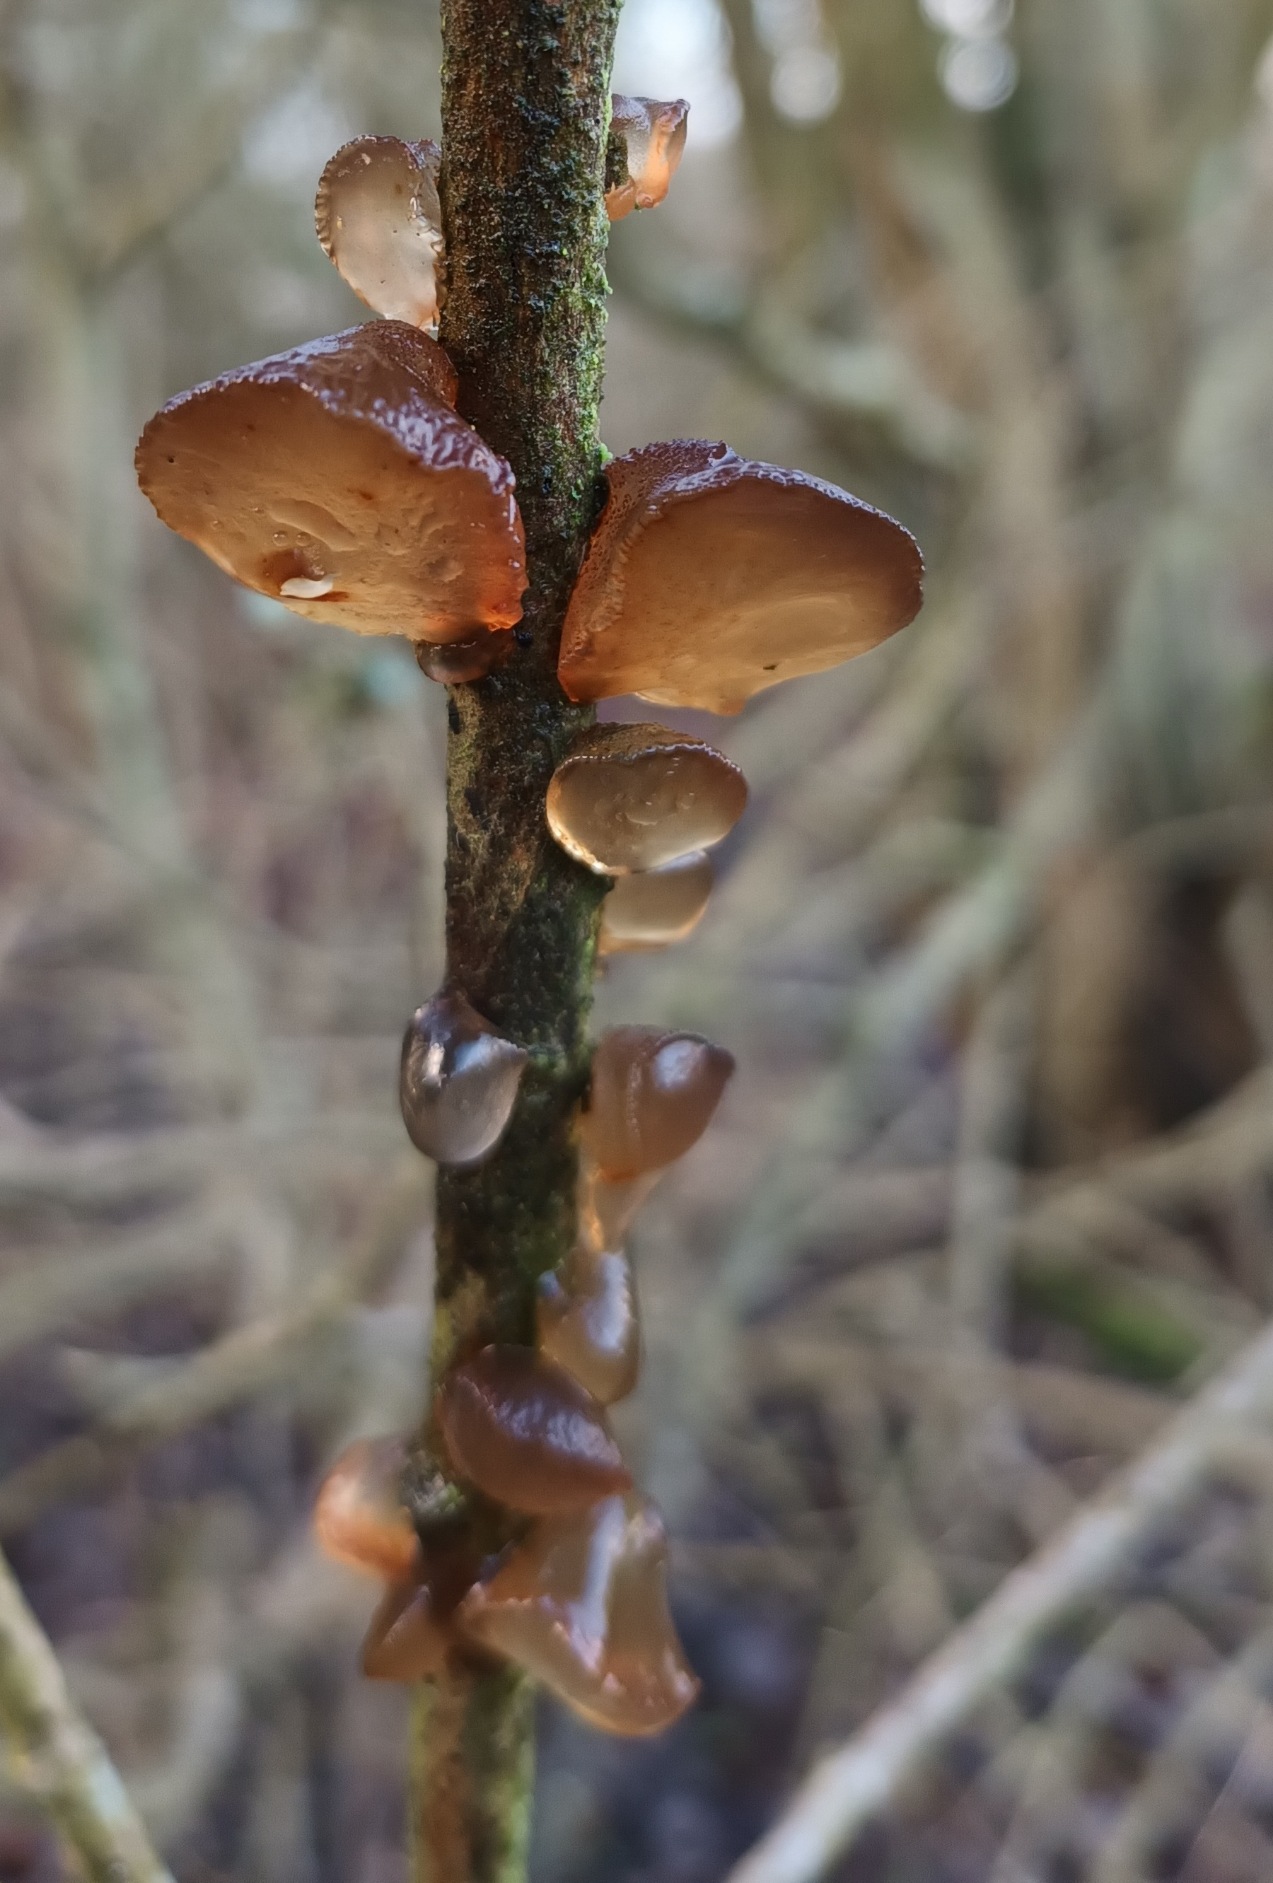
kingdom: Fungi
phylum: Basidiomycota
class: Agaricomycetes
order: Auriculariales
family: Auriculariaceae
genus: Exidia
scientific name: Exidia recisa
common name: Pile-bævretop
